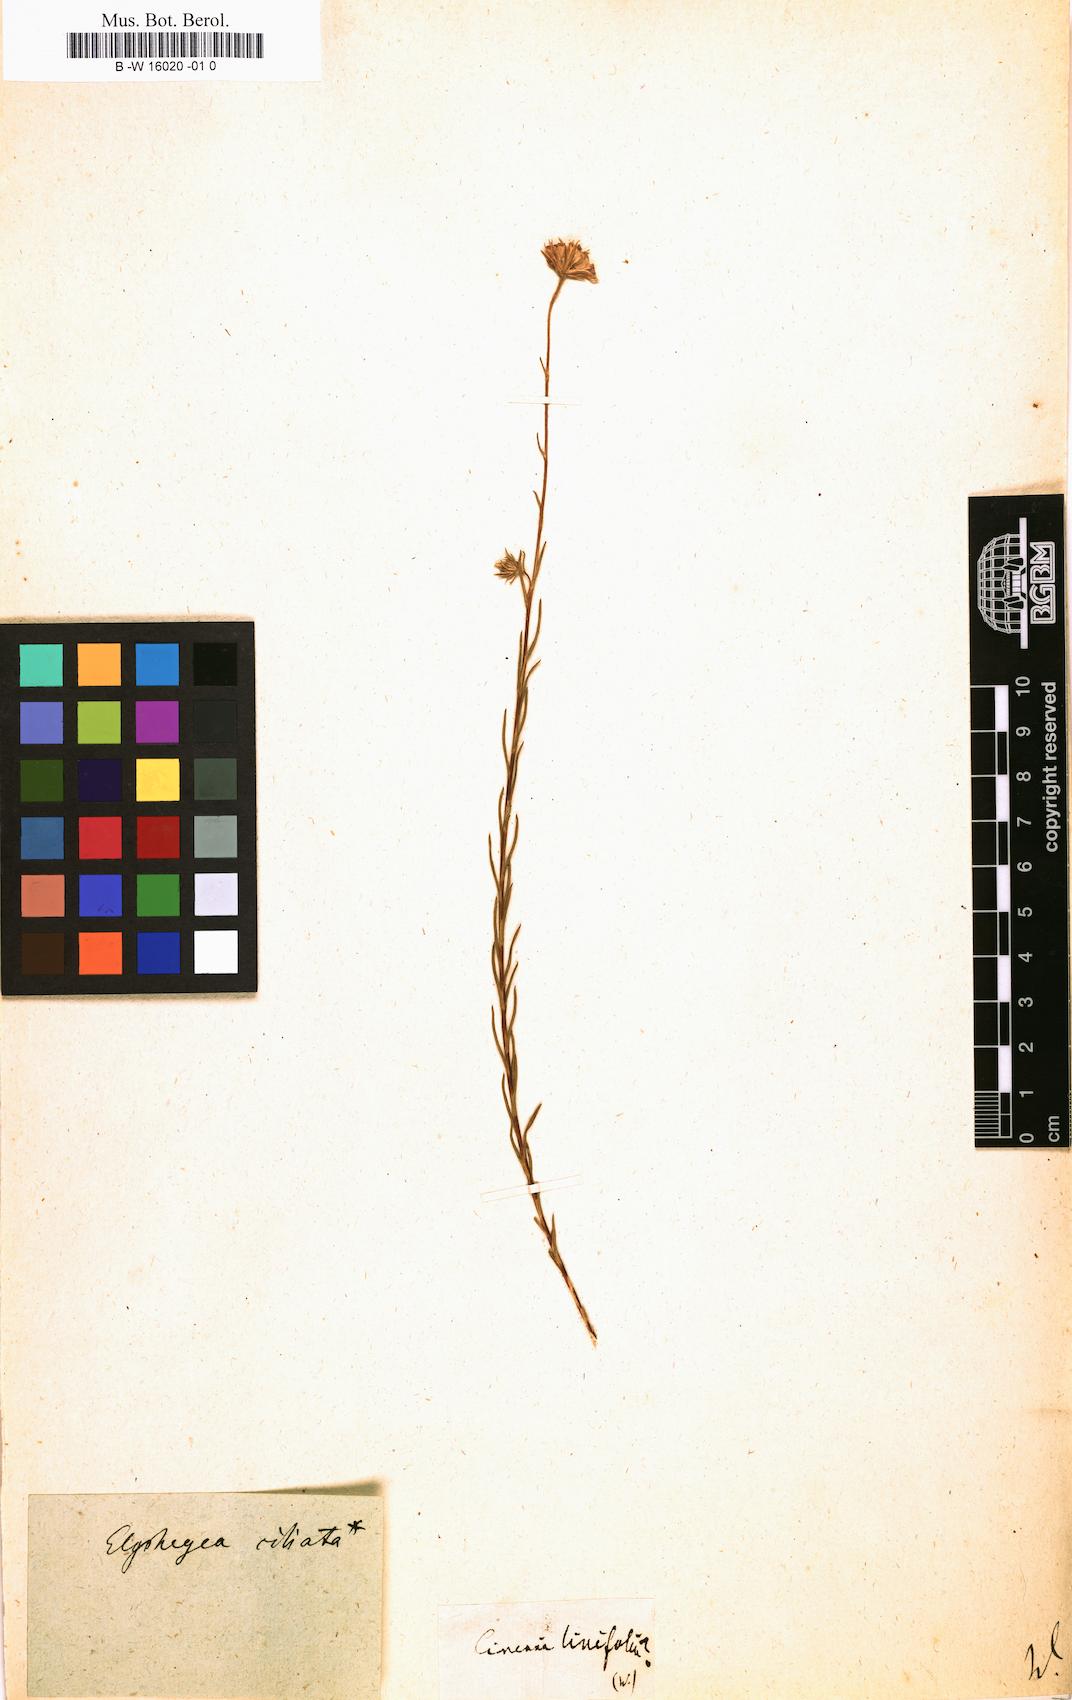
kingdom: Plantae
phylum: Tracheophyta
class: Magnoliopsida
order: Asterales
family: Asteraceae
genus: Cineraria
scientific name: Cineraria
